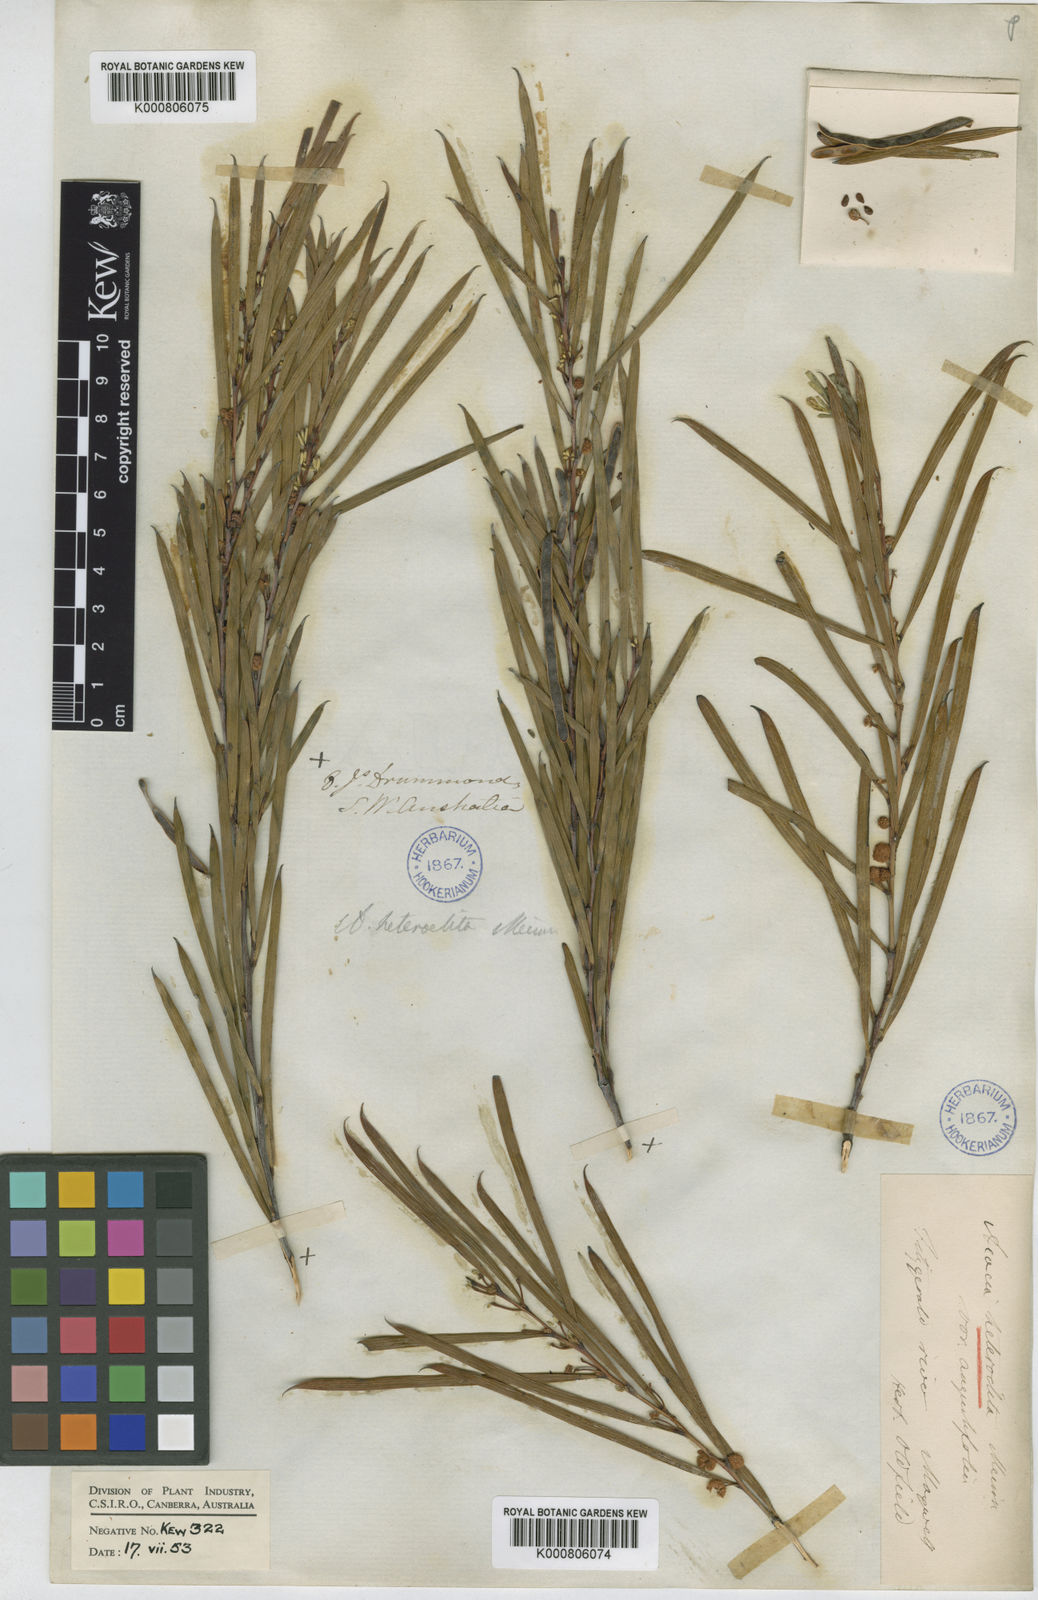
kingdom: Plantae
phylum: Tracheophyta
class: Magnoliopsida
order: Fabales
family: Fabaceae
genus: Acacia
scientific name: Acacia heteroclita
